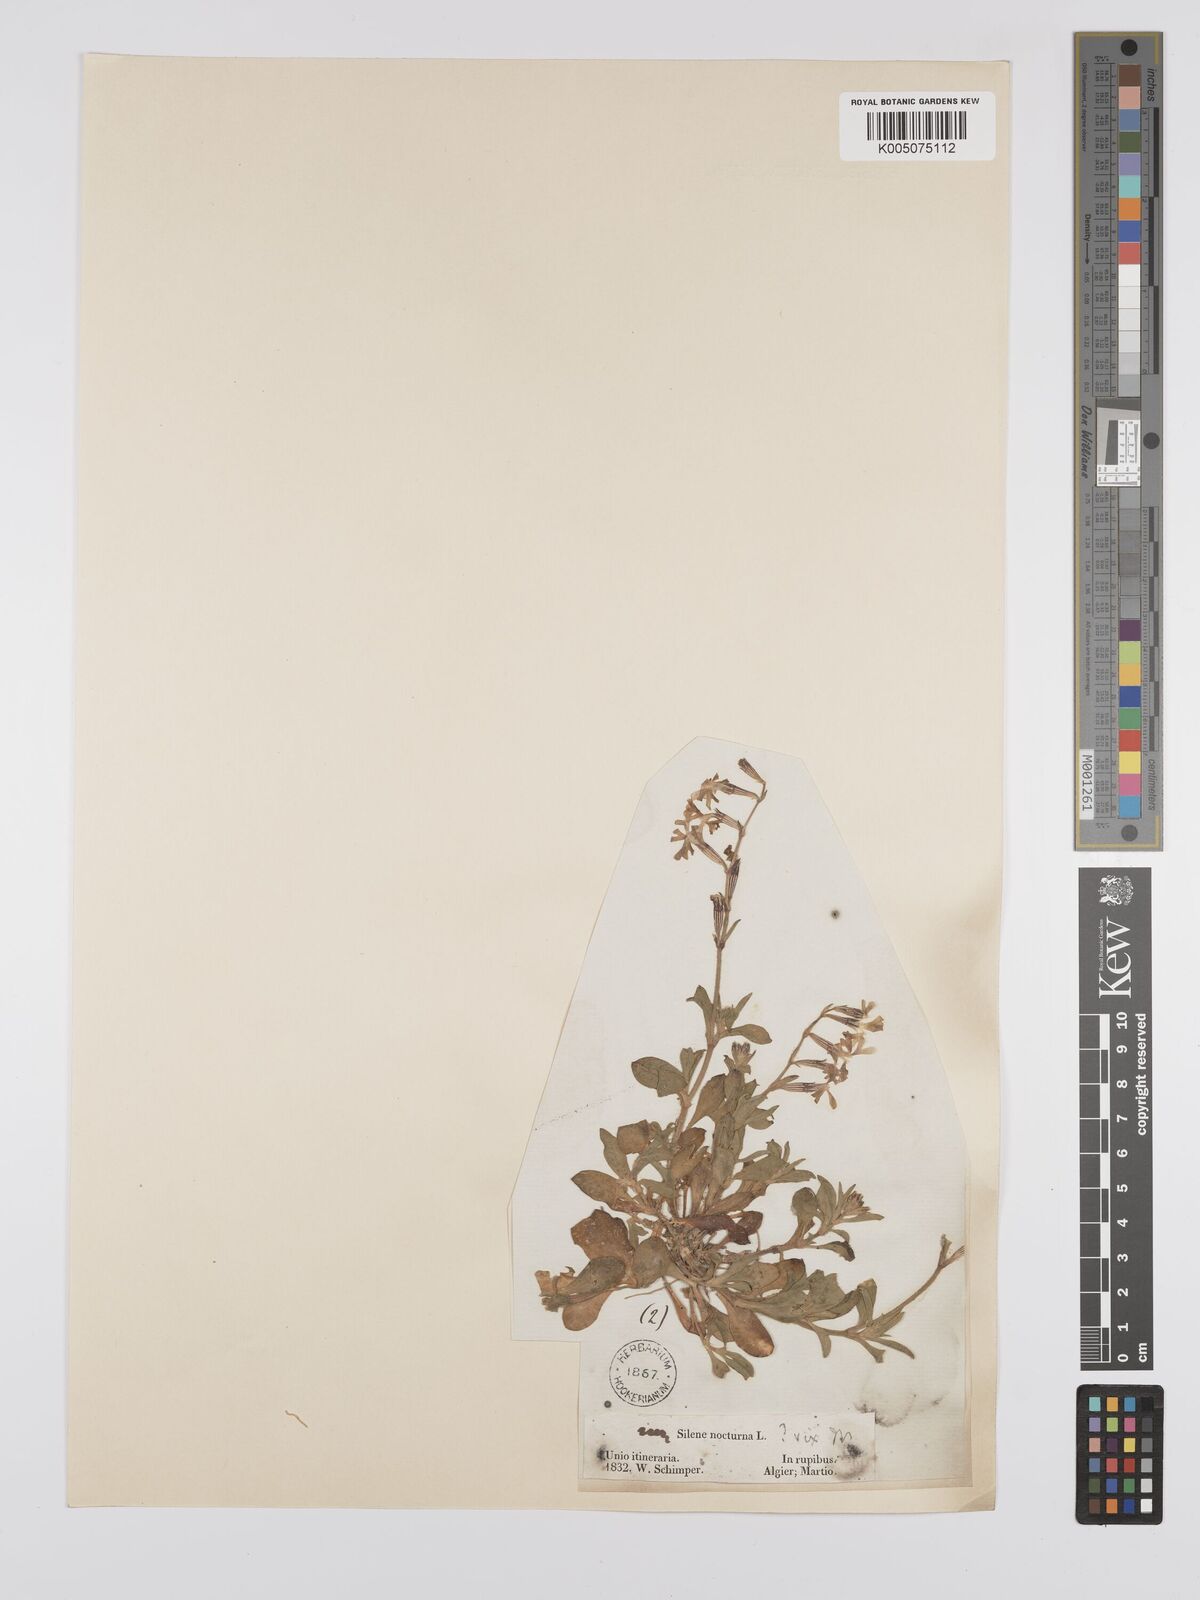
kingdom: Plantae
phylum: Tracheophyta
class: Magnoliopsida
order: Caryophyllales
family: Caryophyllaceae
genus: Silene
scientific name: Silene nocturna
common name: Mediterranean catchfly
